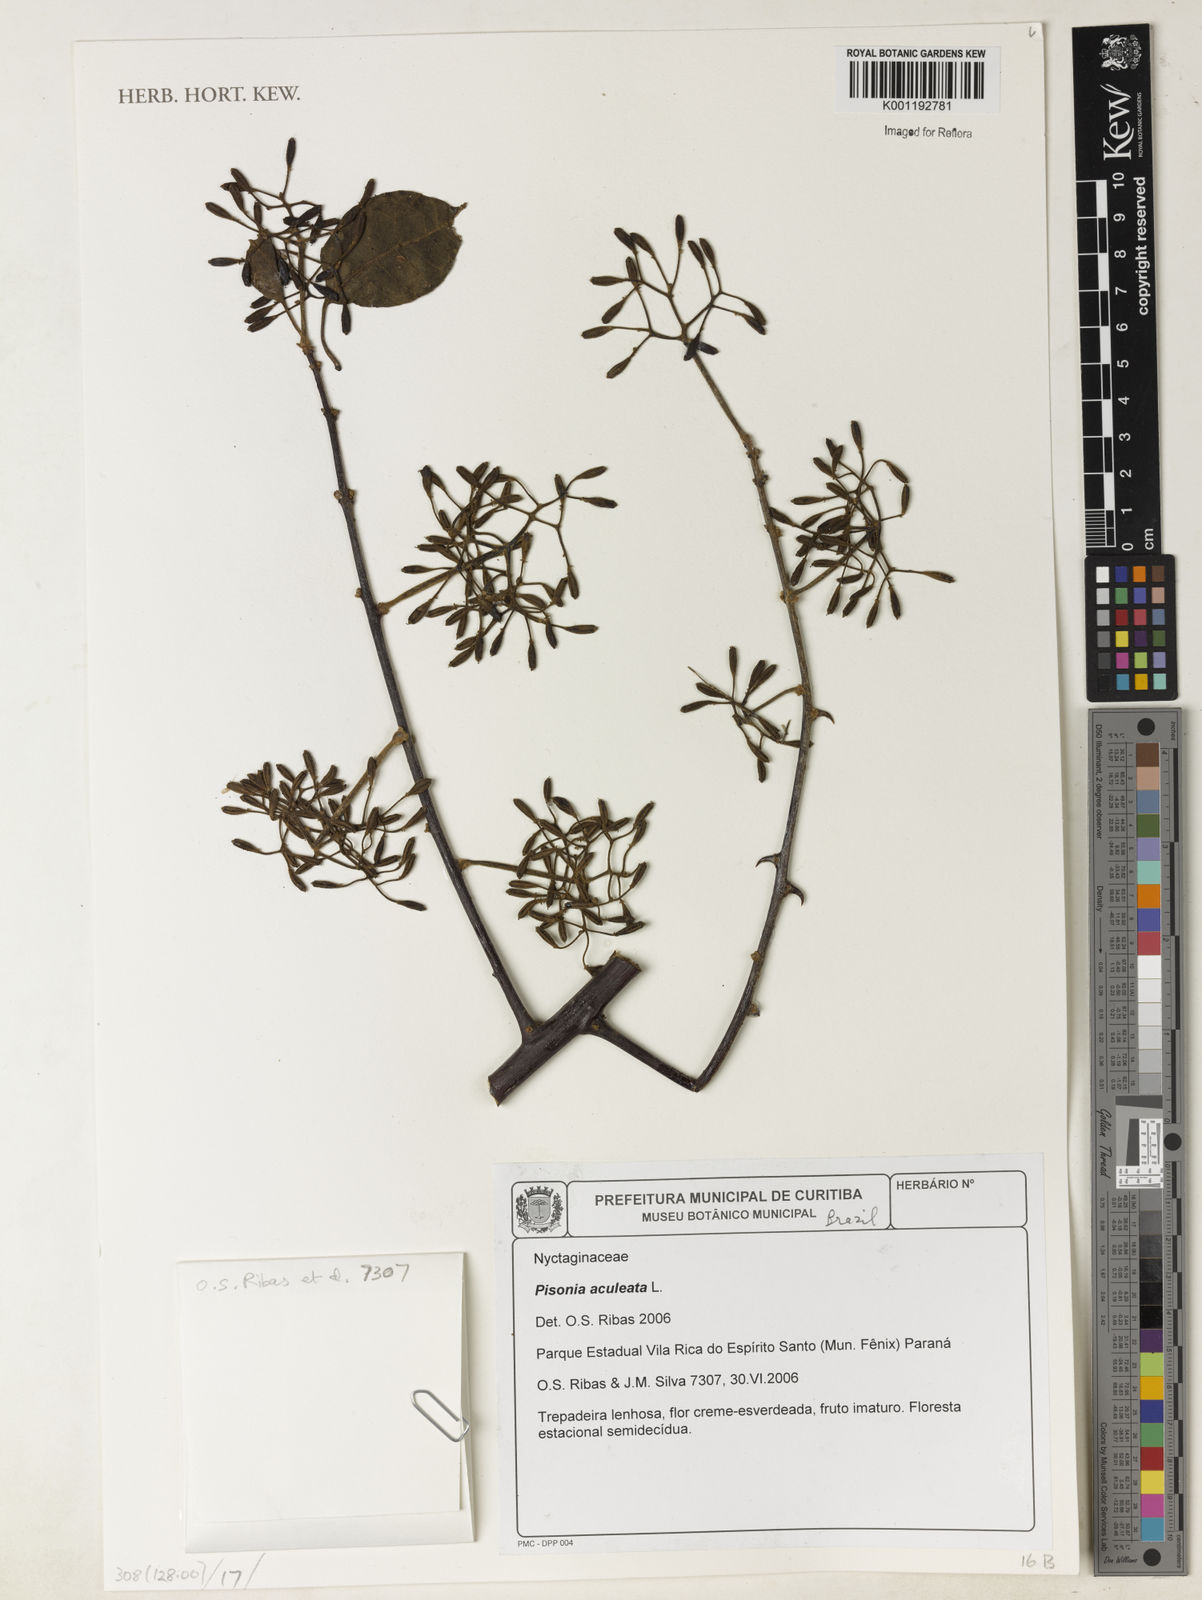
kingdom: Plantae
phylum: Tracheophyta
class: Magnoliopsida
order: Caryophyllales
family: Nyctaginaceae
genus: Pisonia
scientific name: Pisonia aculeata
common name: Cockspur vine
